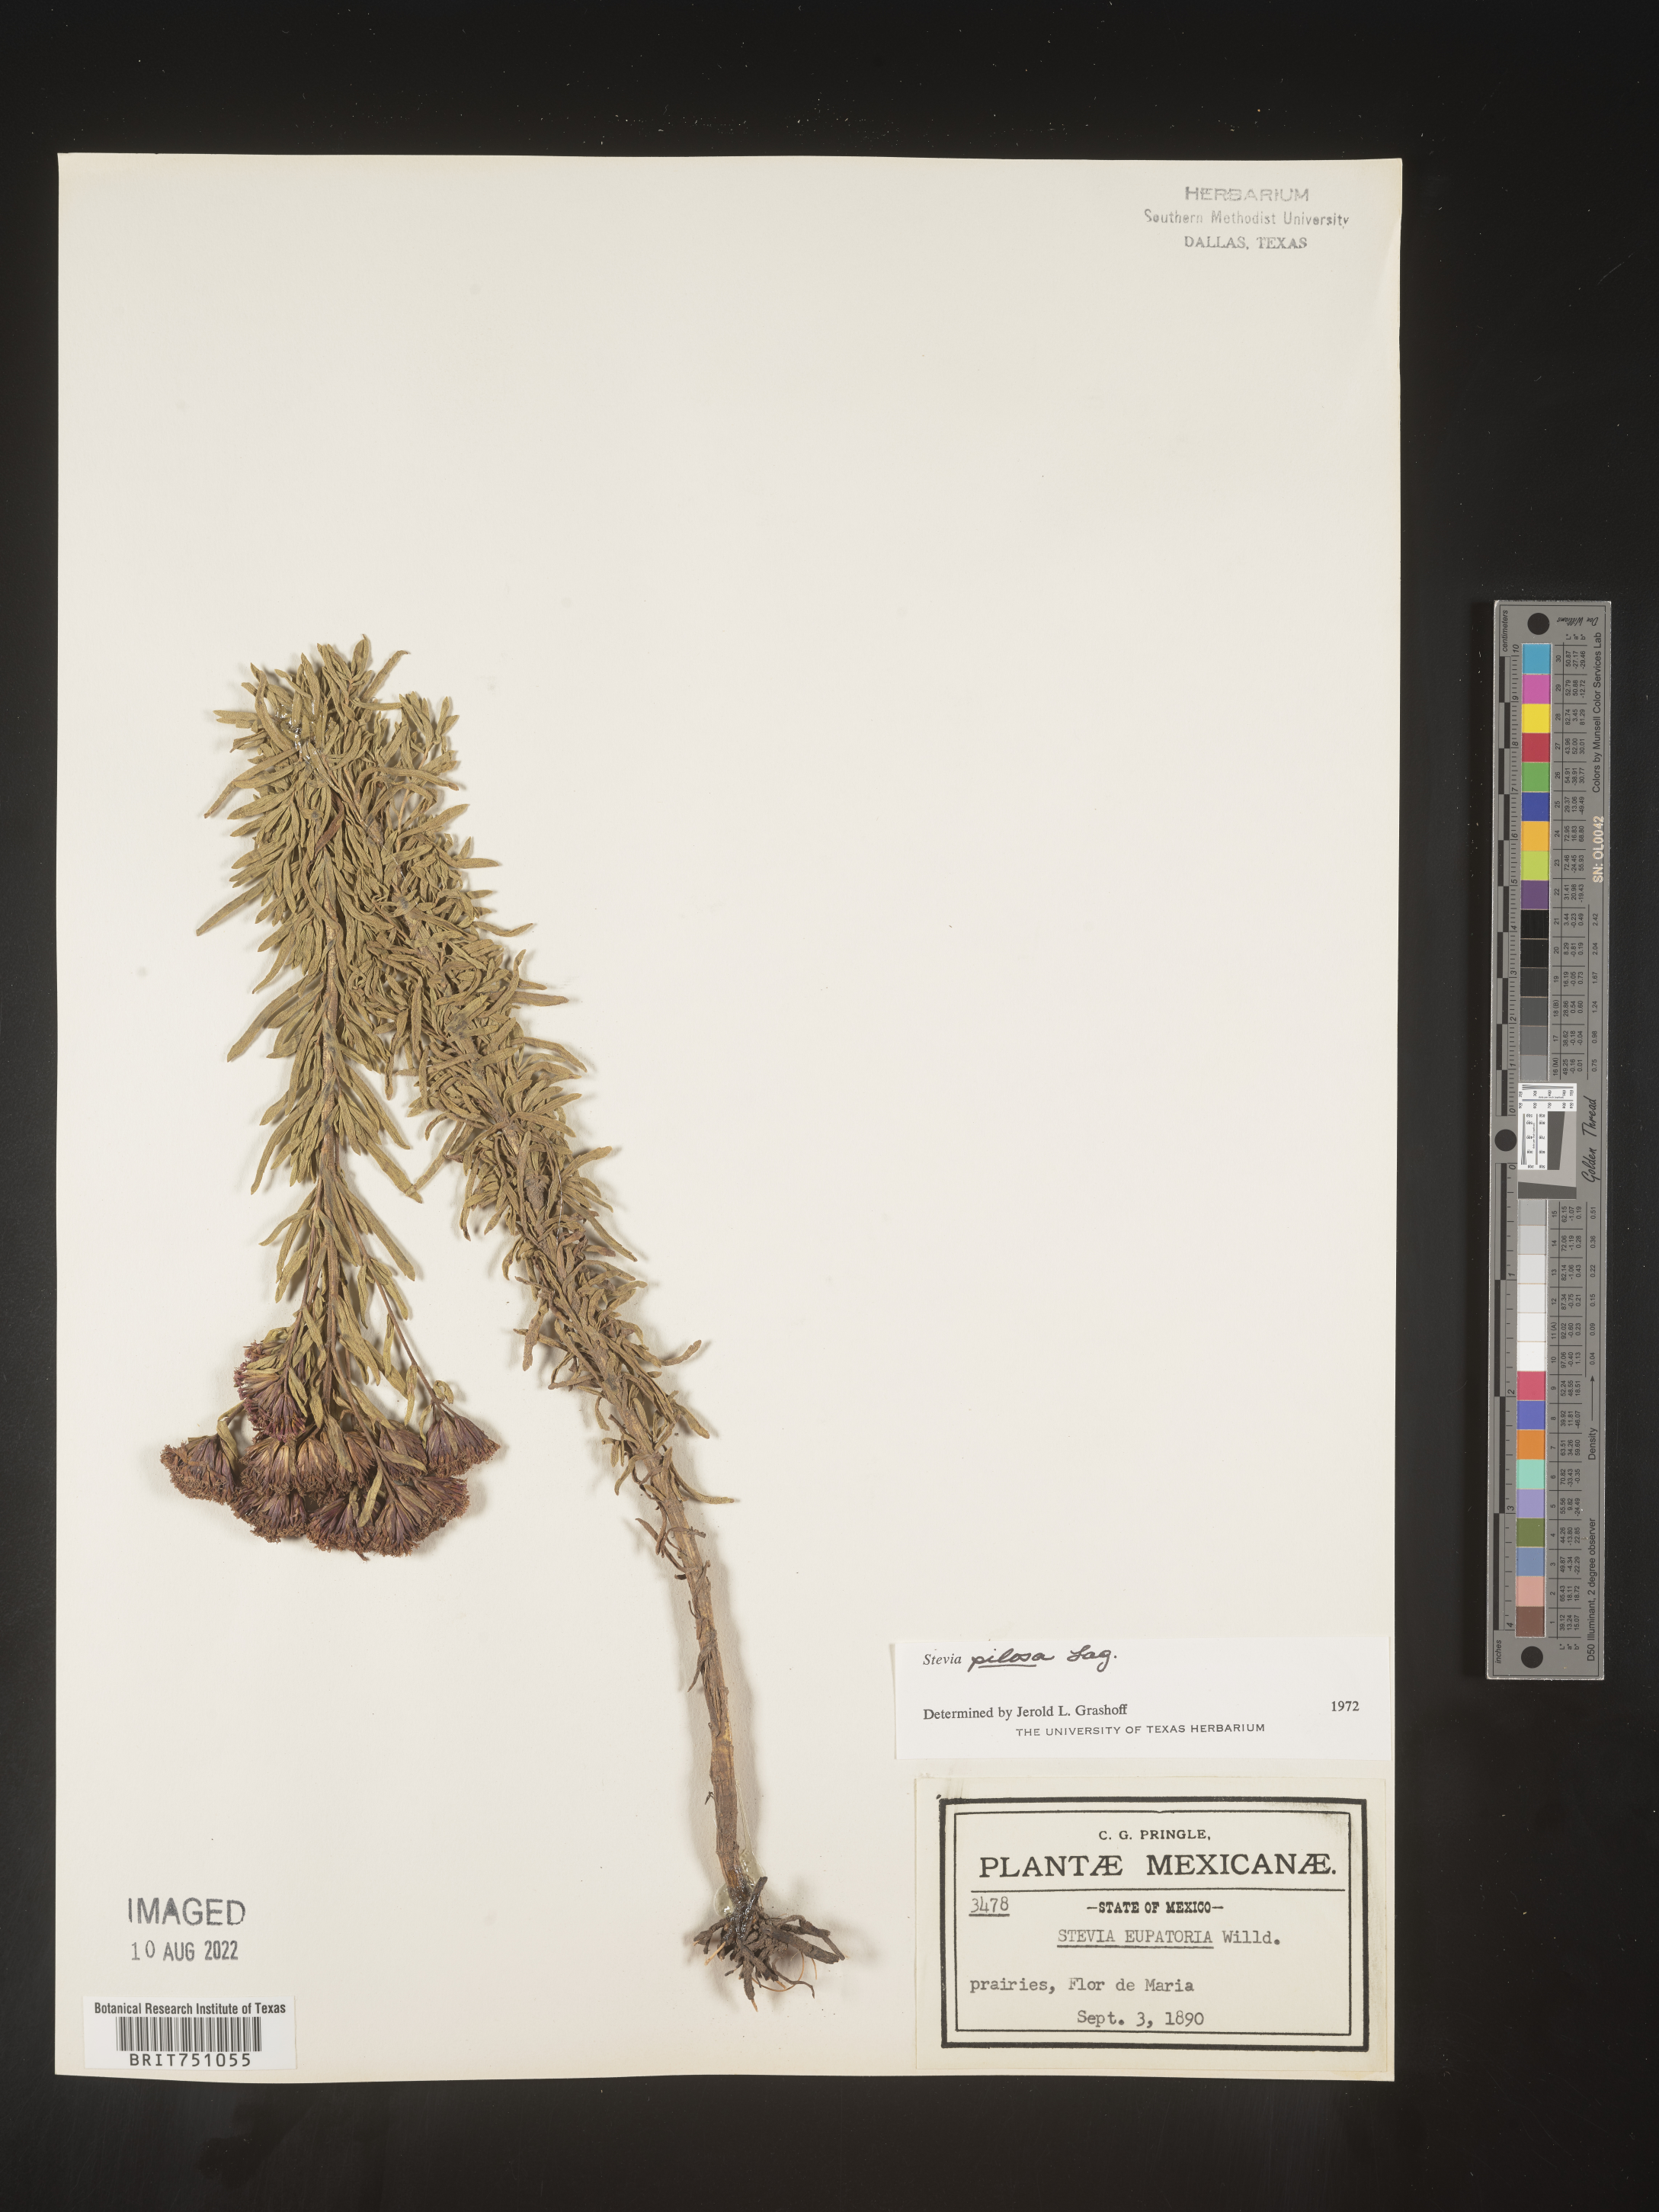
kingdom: Plantae
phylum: Tracheophyta
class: Magnoliopsida
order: Asterales
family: Asteraceae
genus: Stevia
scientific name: Stevia
